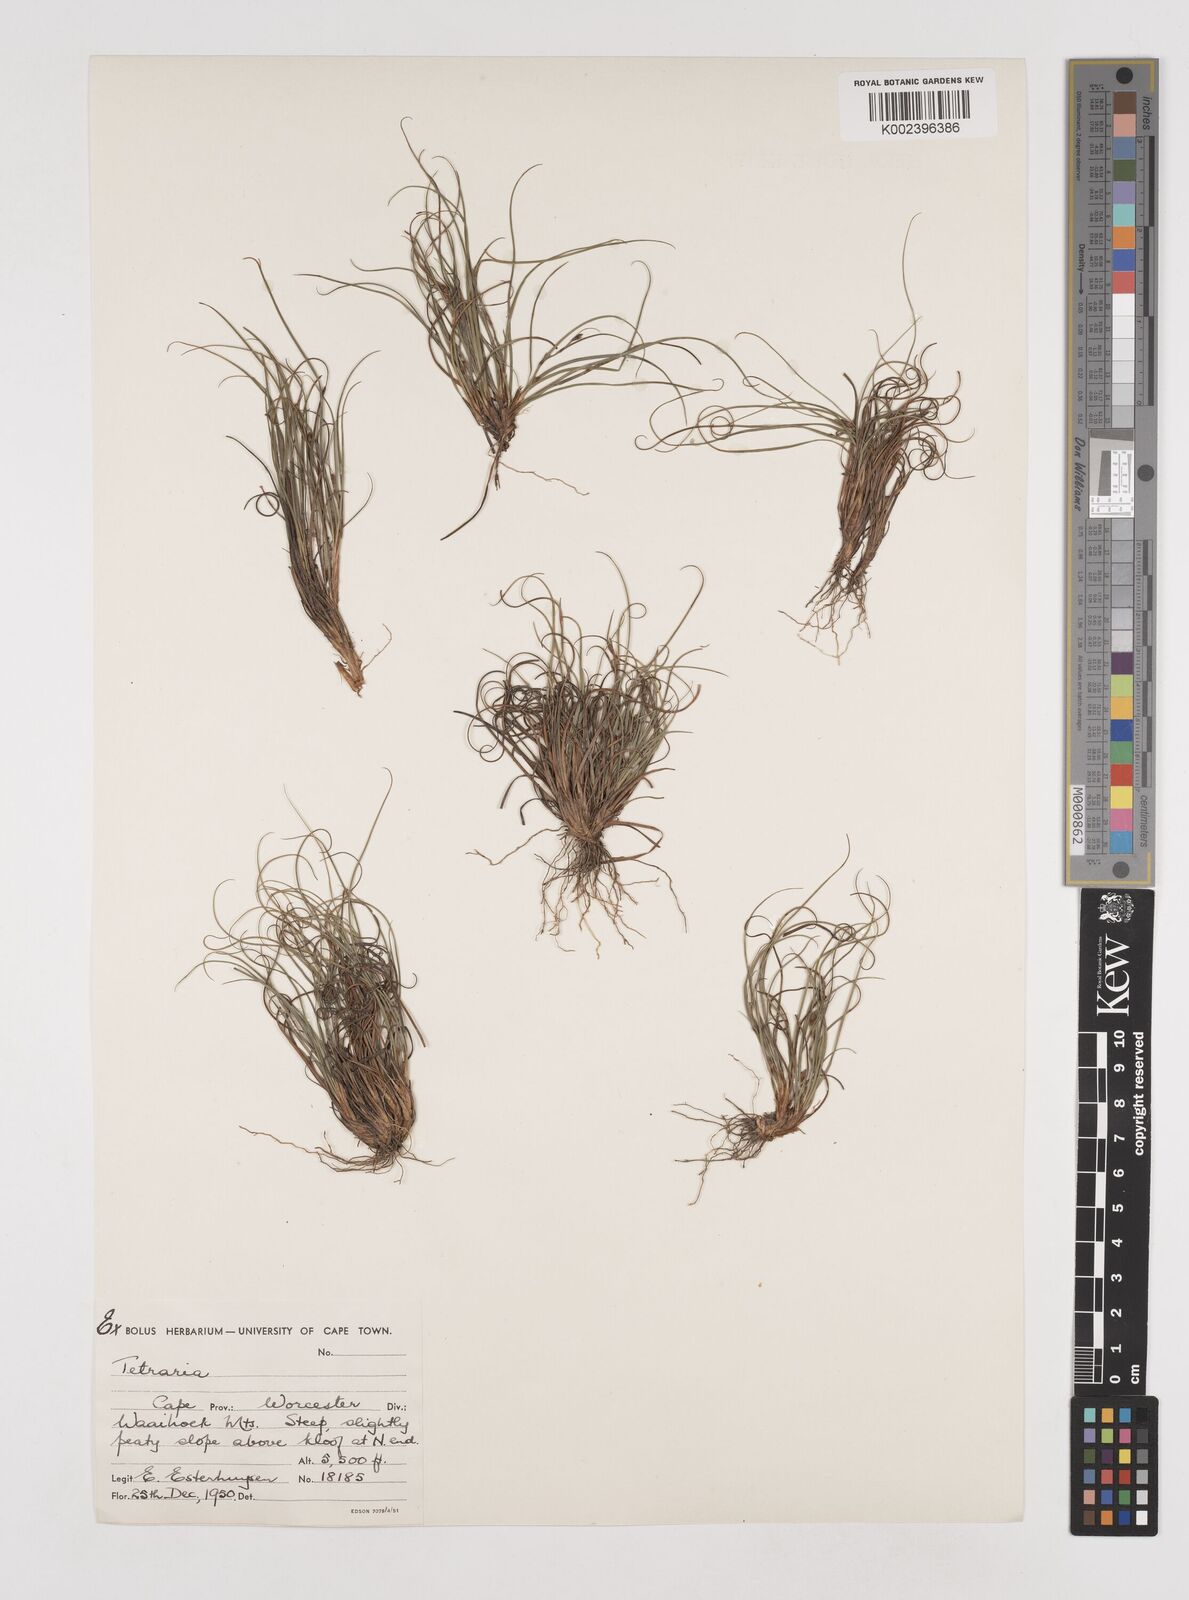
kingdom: Plantae
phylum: Tracheophyta
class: Liliopsida
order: Poales
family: Cyperaceae
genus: Tetraria
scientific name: Tetraria
